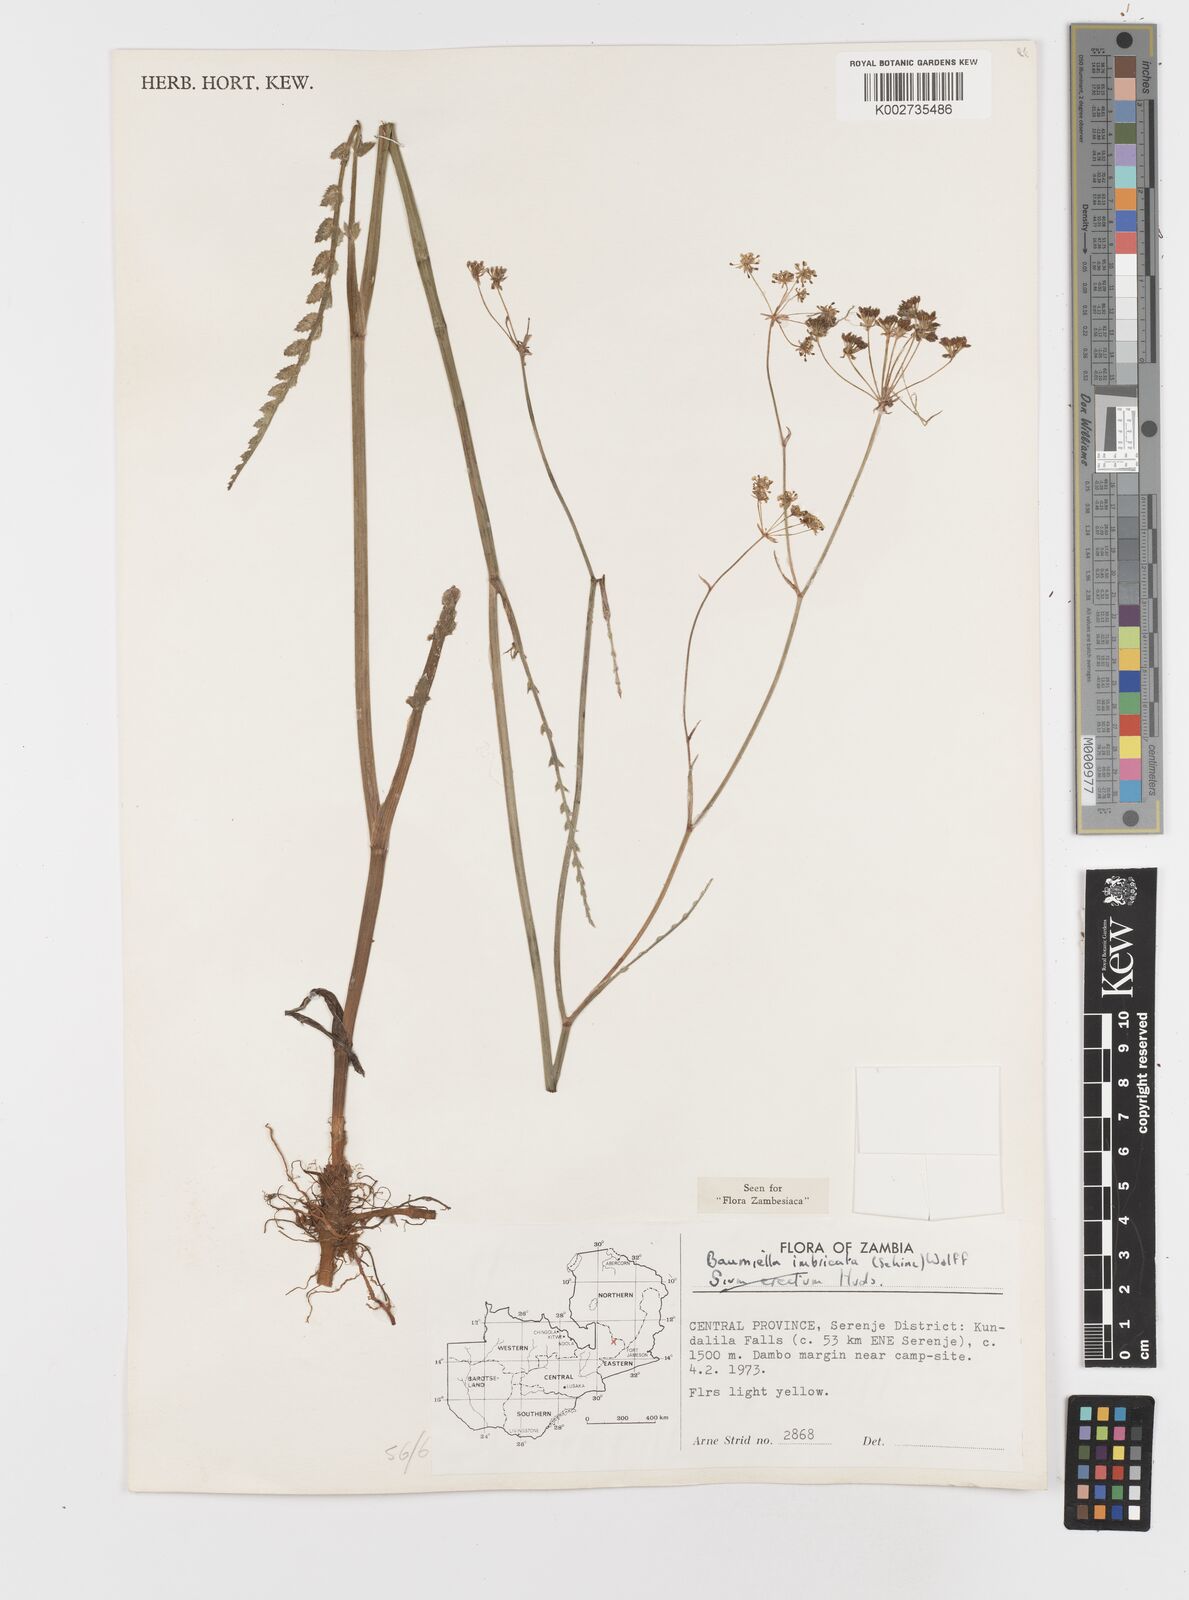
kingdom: Plantae
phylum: Tracheophyta
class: Magnoliopsida
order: Apiales
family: Apiaceae
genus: Berula
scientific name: Berula imbricata
